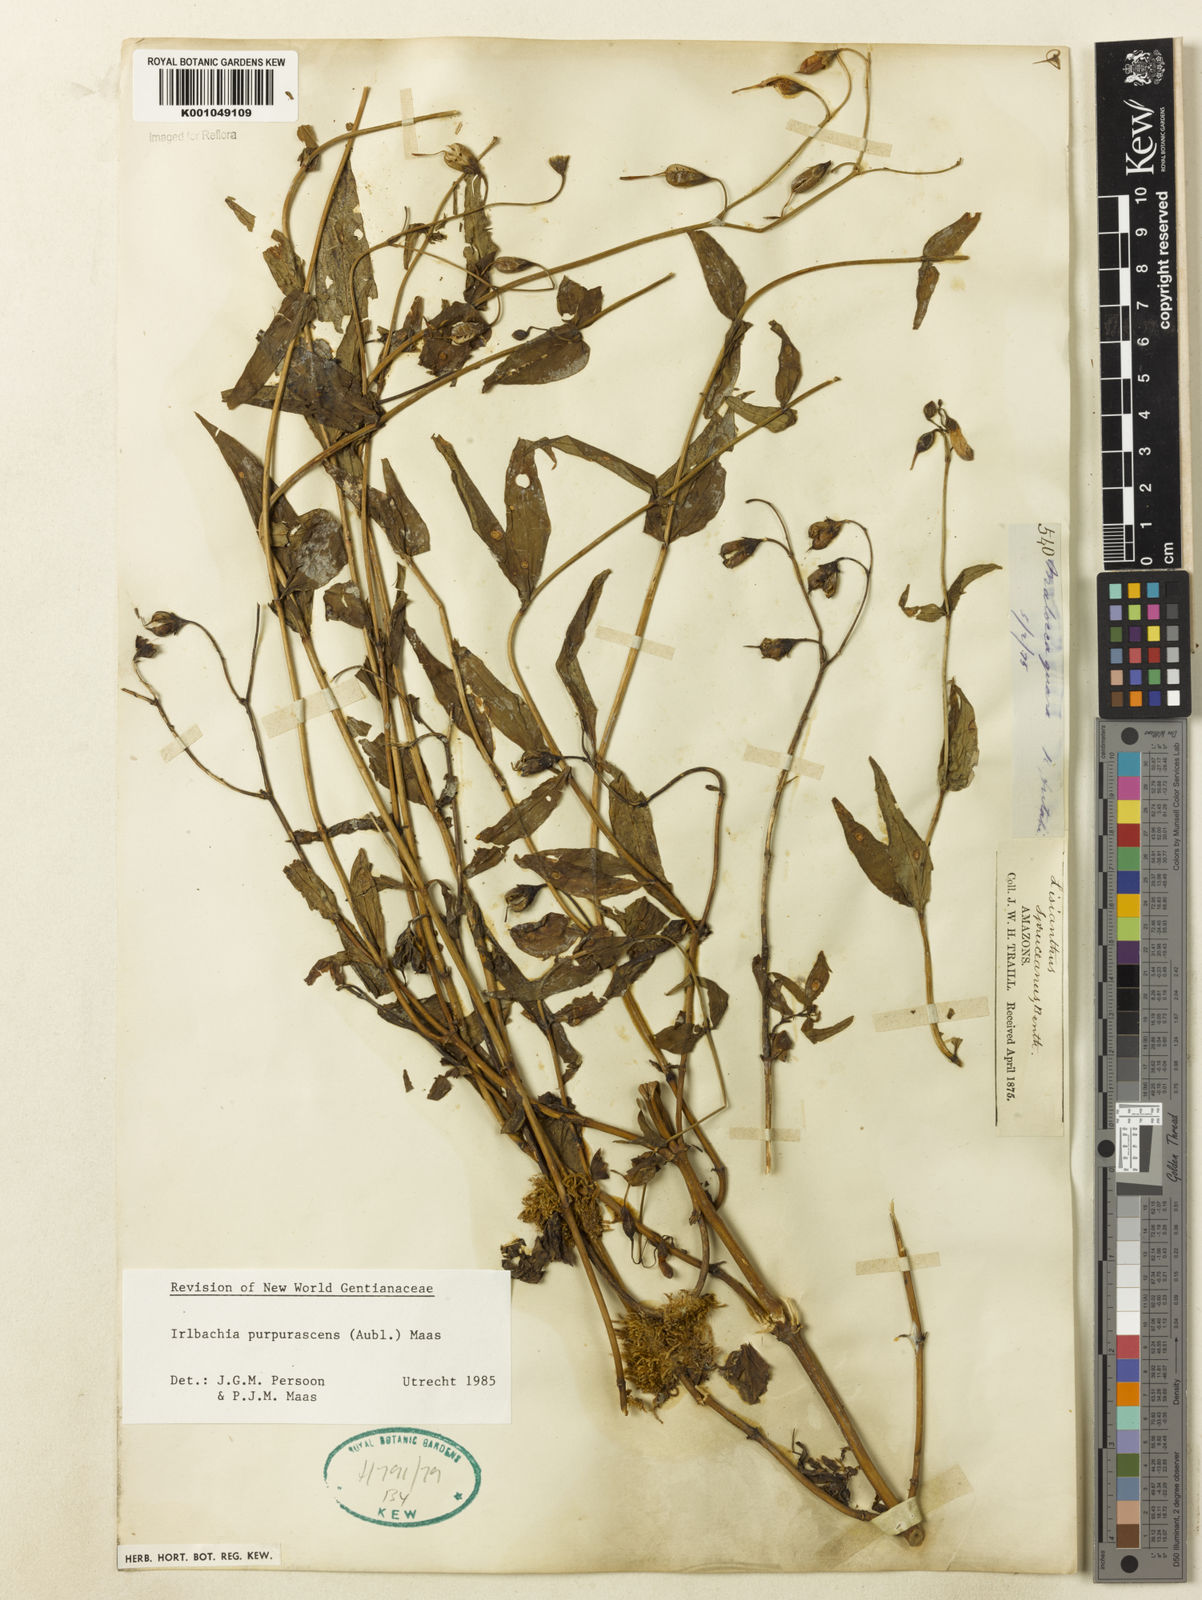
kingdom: Plantae
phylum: Tracheophyta
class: Magnoliopsida
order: Gentianales
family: Gentianaceae
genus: Chelonanthus
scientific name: Chelonanthus purpurascens
